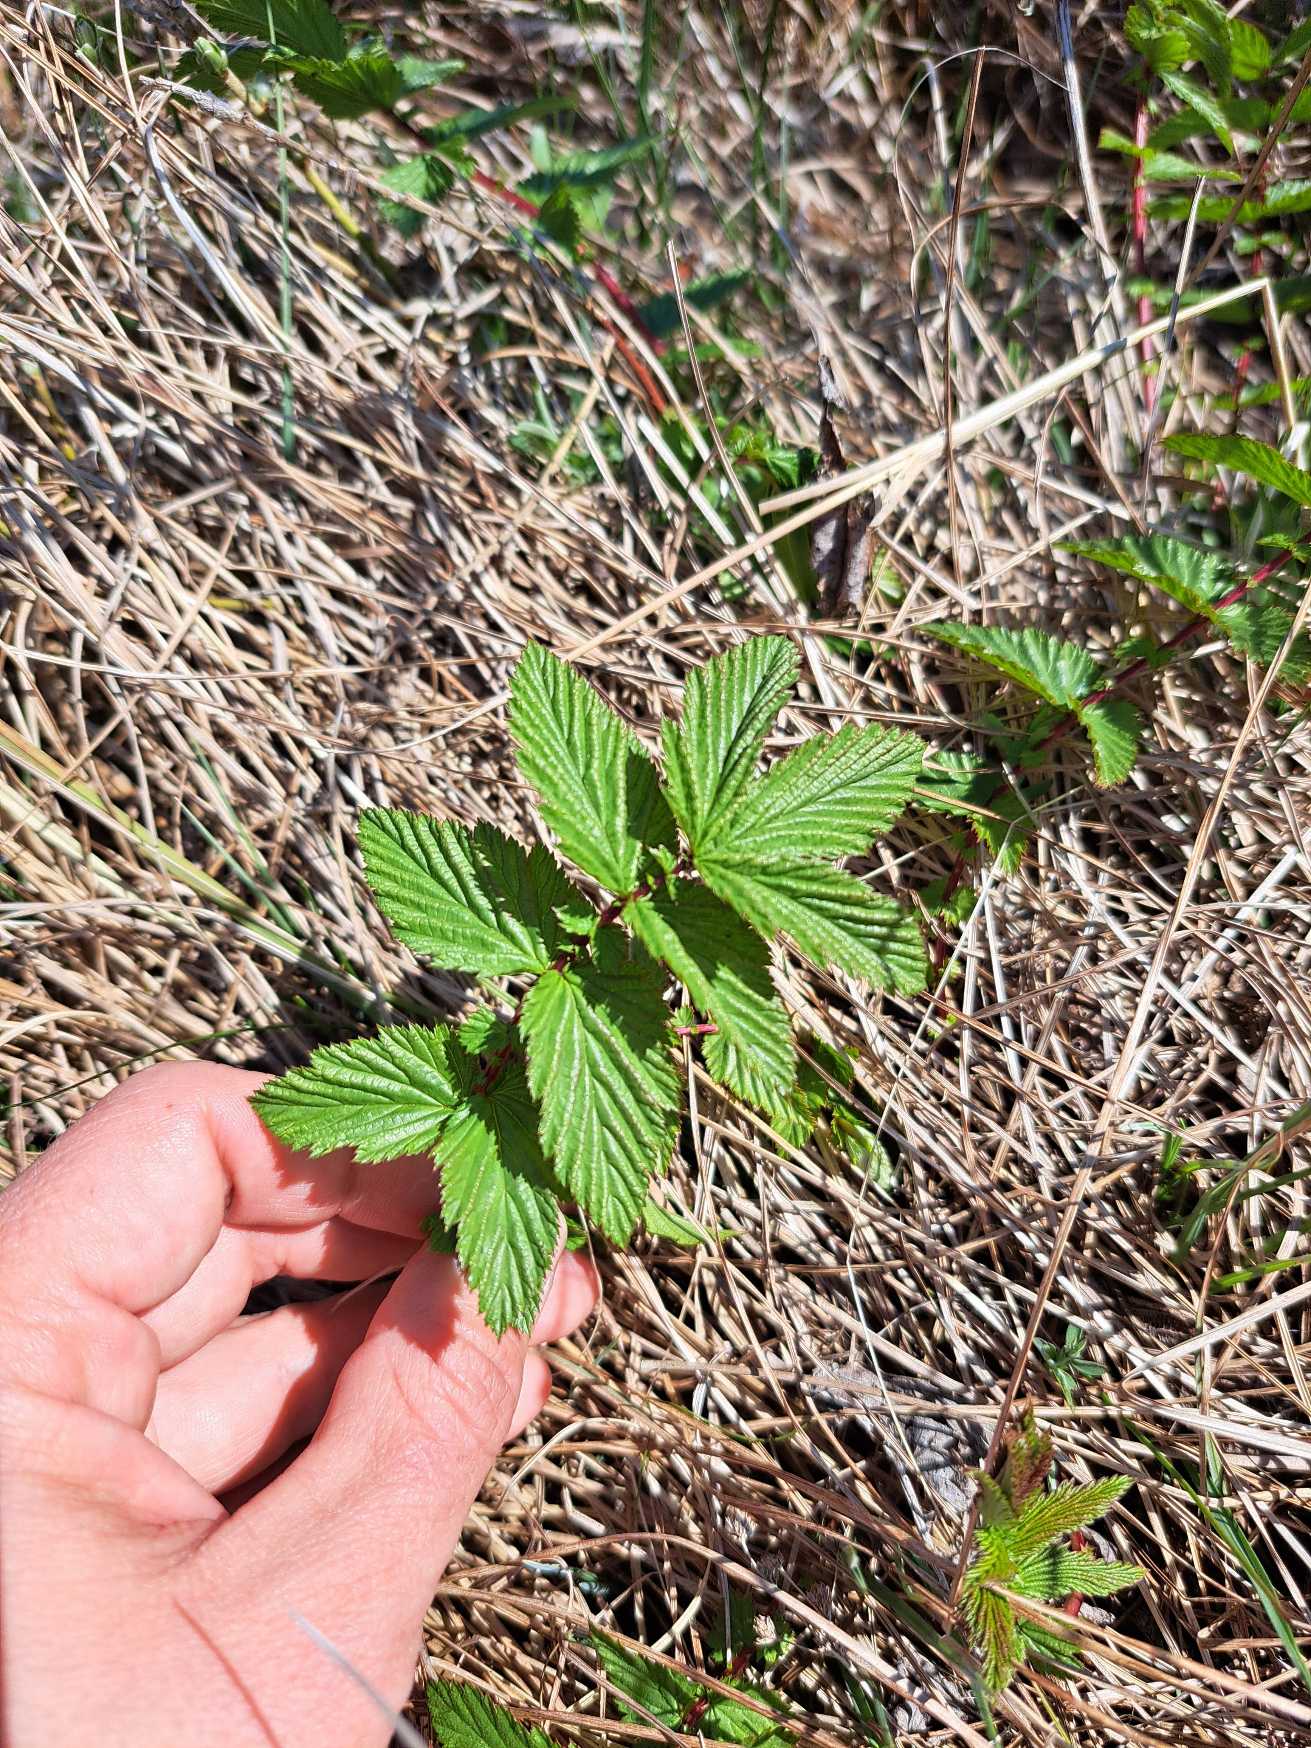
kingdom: Plantae
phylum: Tracheophyta
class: Magnoliopsida
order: Rosales
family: Rosaceae
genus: Filipendula
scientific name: Filipendula ulmaria
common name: Almindelig mjødurt
